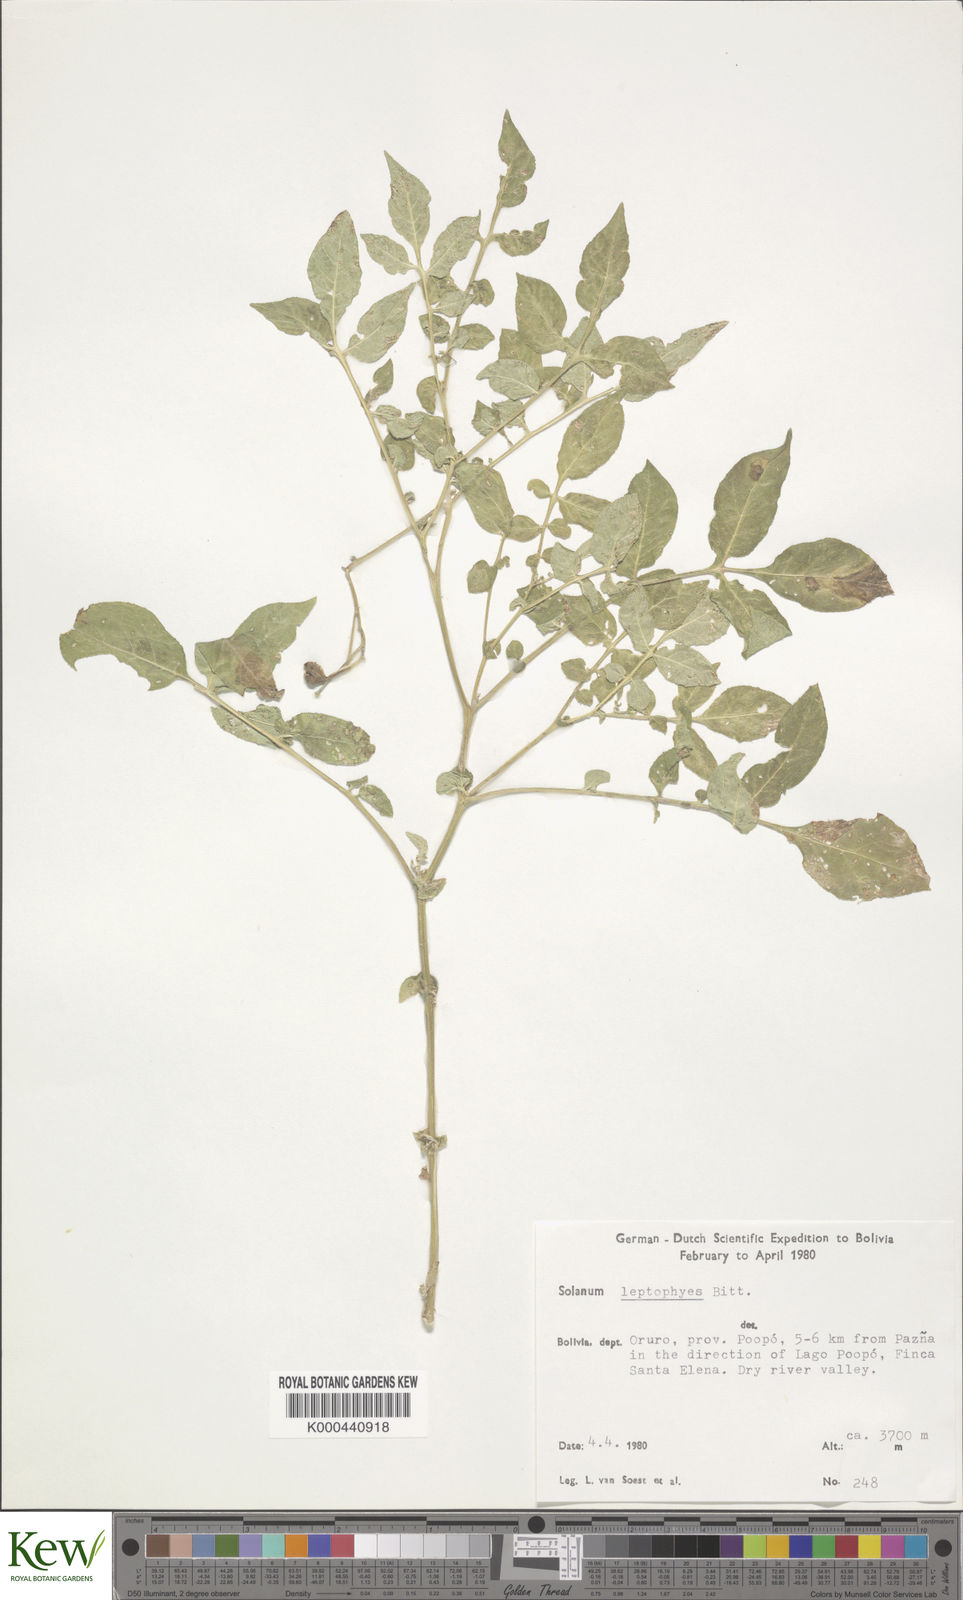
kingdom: Plantae
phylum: Tracheophyta
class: Magnoliopsida
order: Solanales
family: Solanaceae
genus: Solanum
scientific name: Solanum brevicaule
